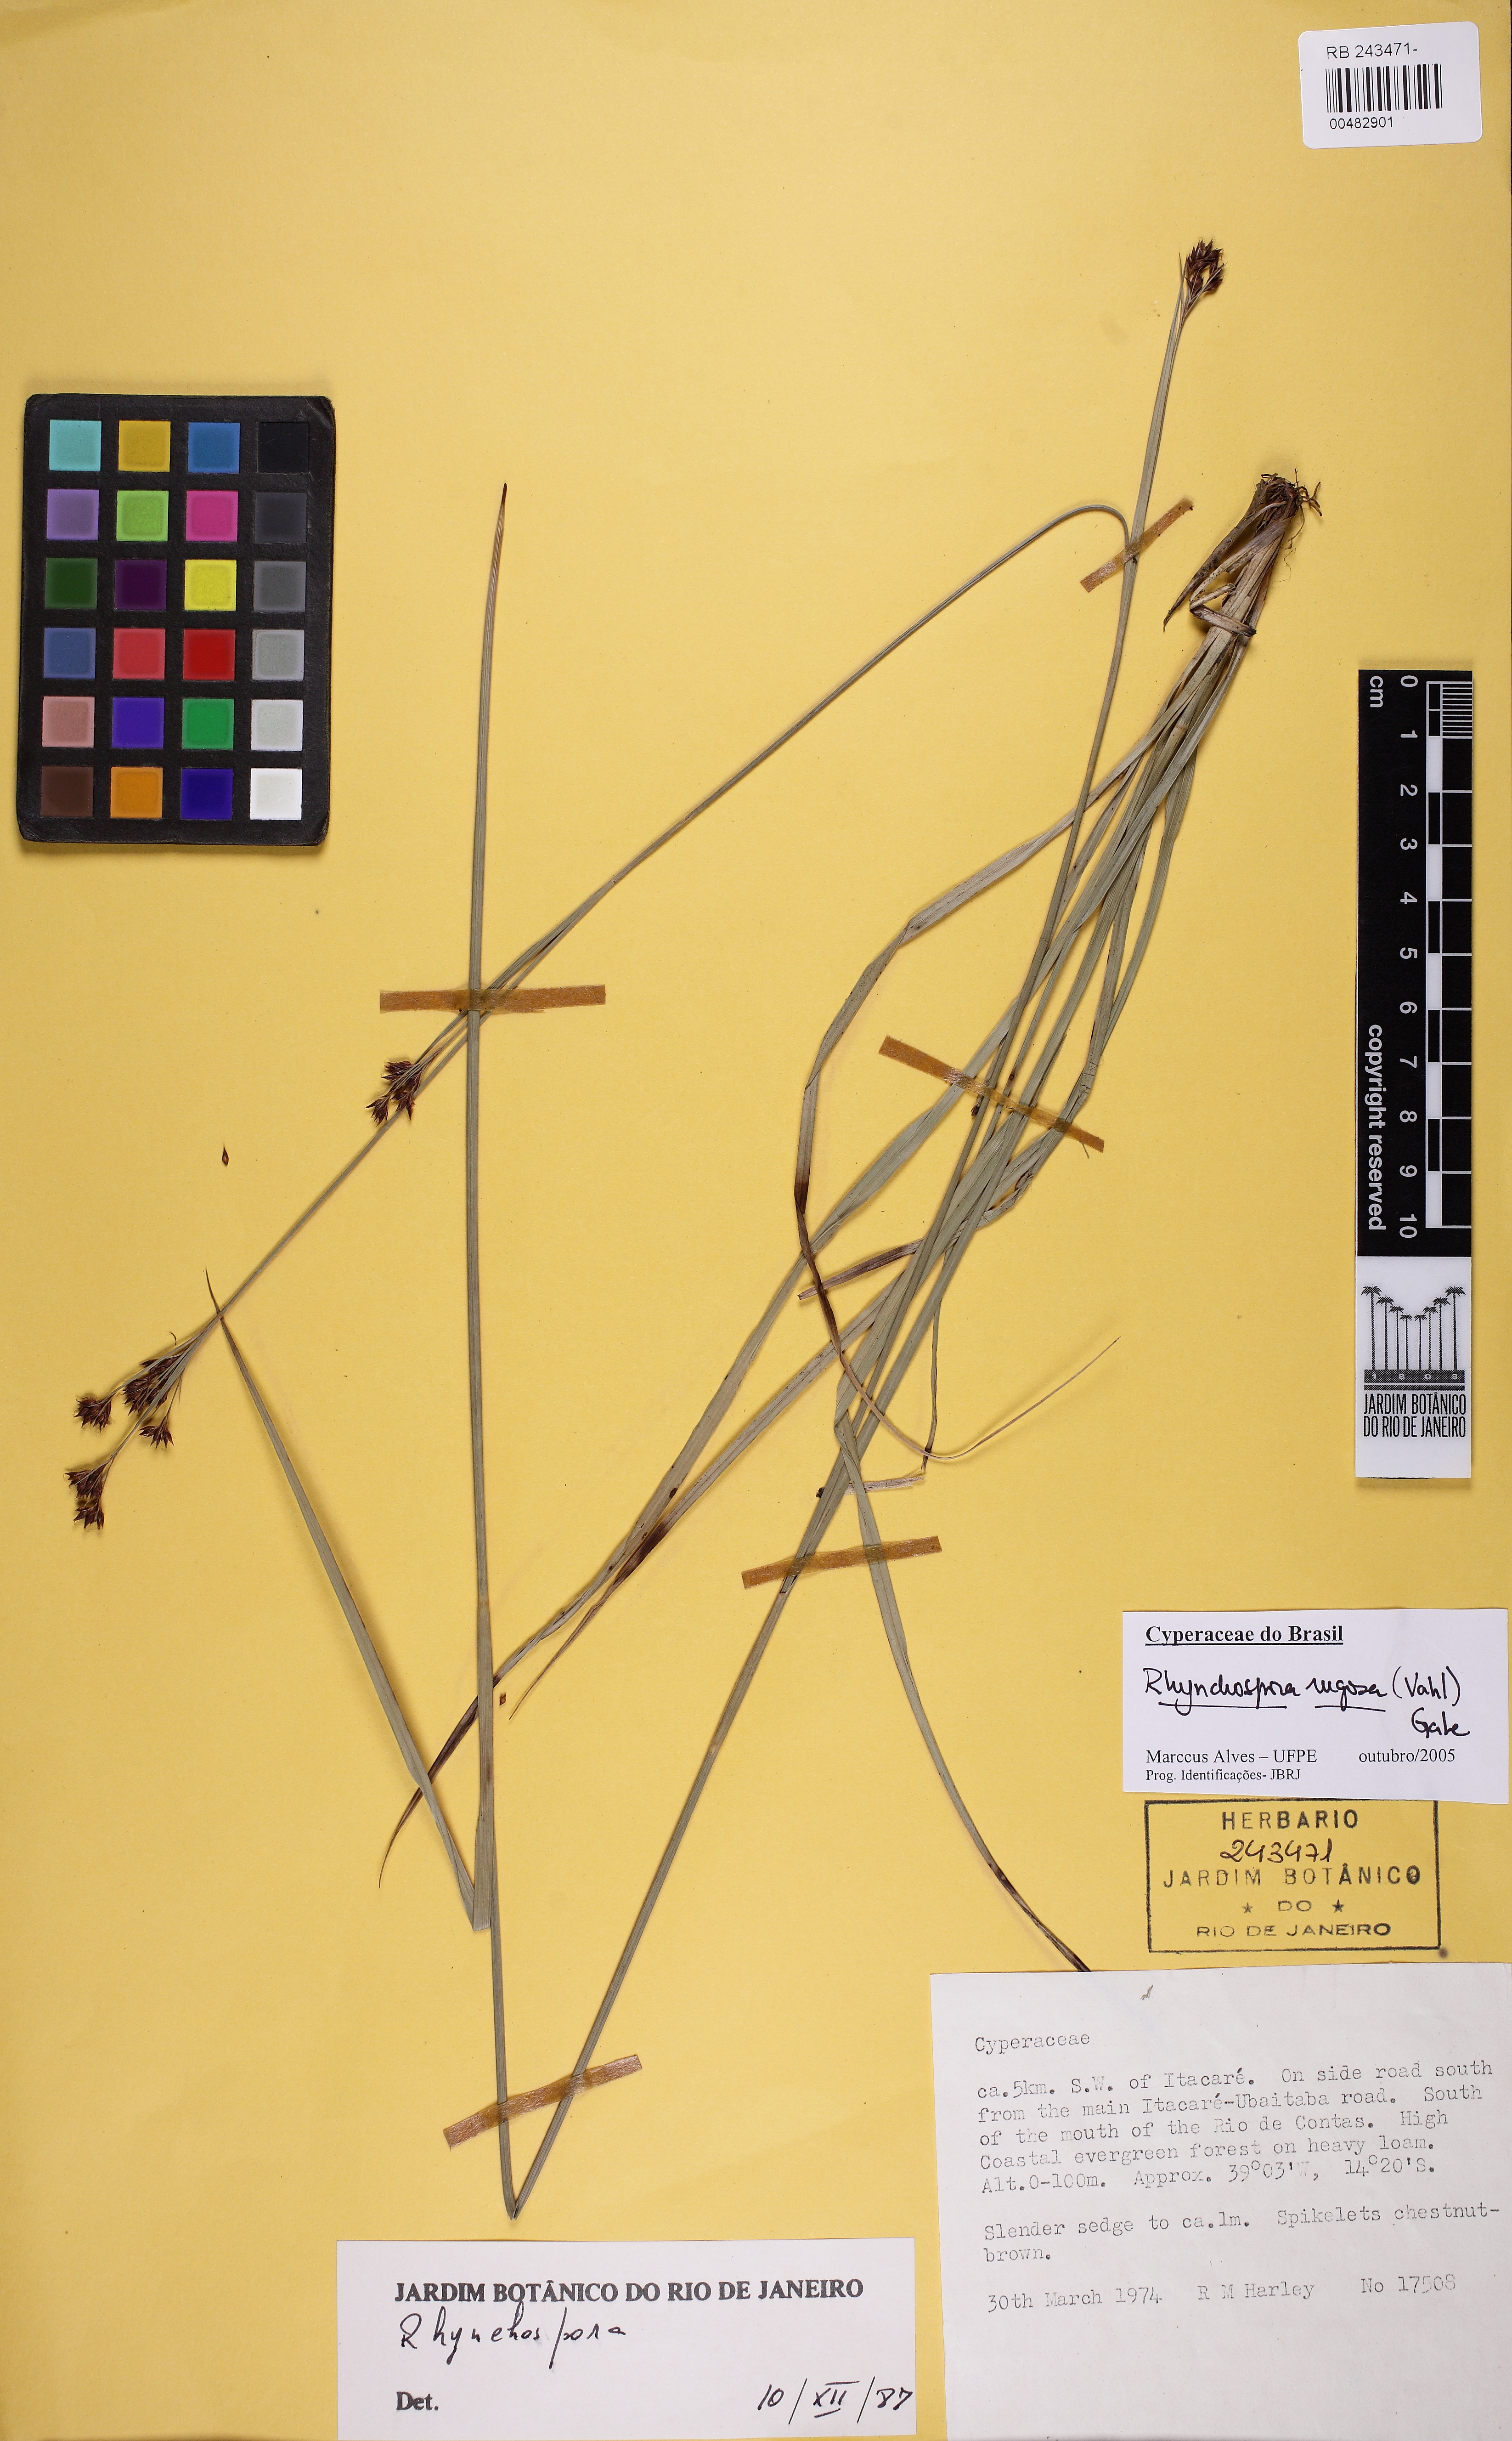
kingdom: Plantae
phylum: Tracheophyta
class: Liliopsida
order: Poales
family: Cyperaceae
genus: Rhynchospora
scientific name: Rhynchospora rugosa
